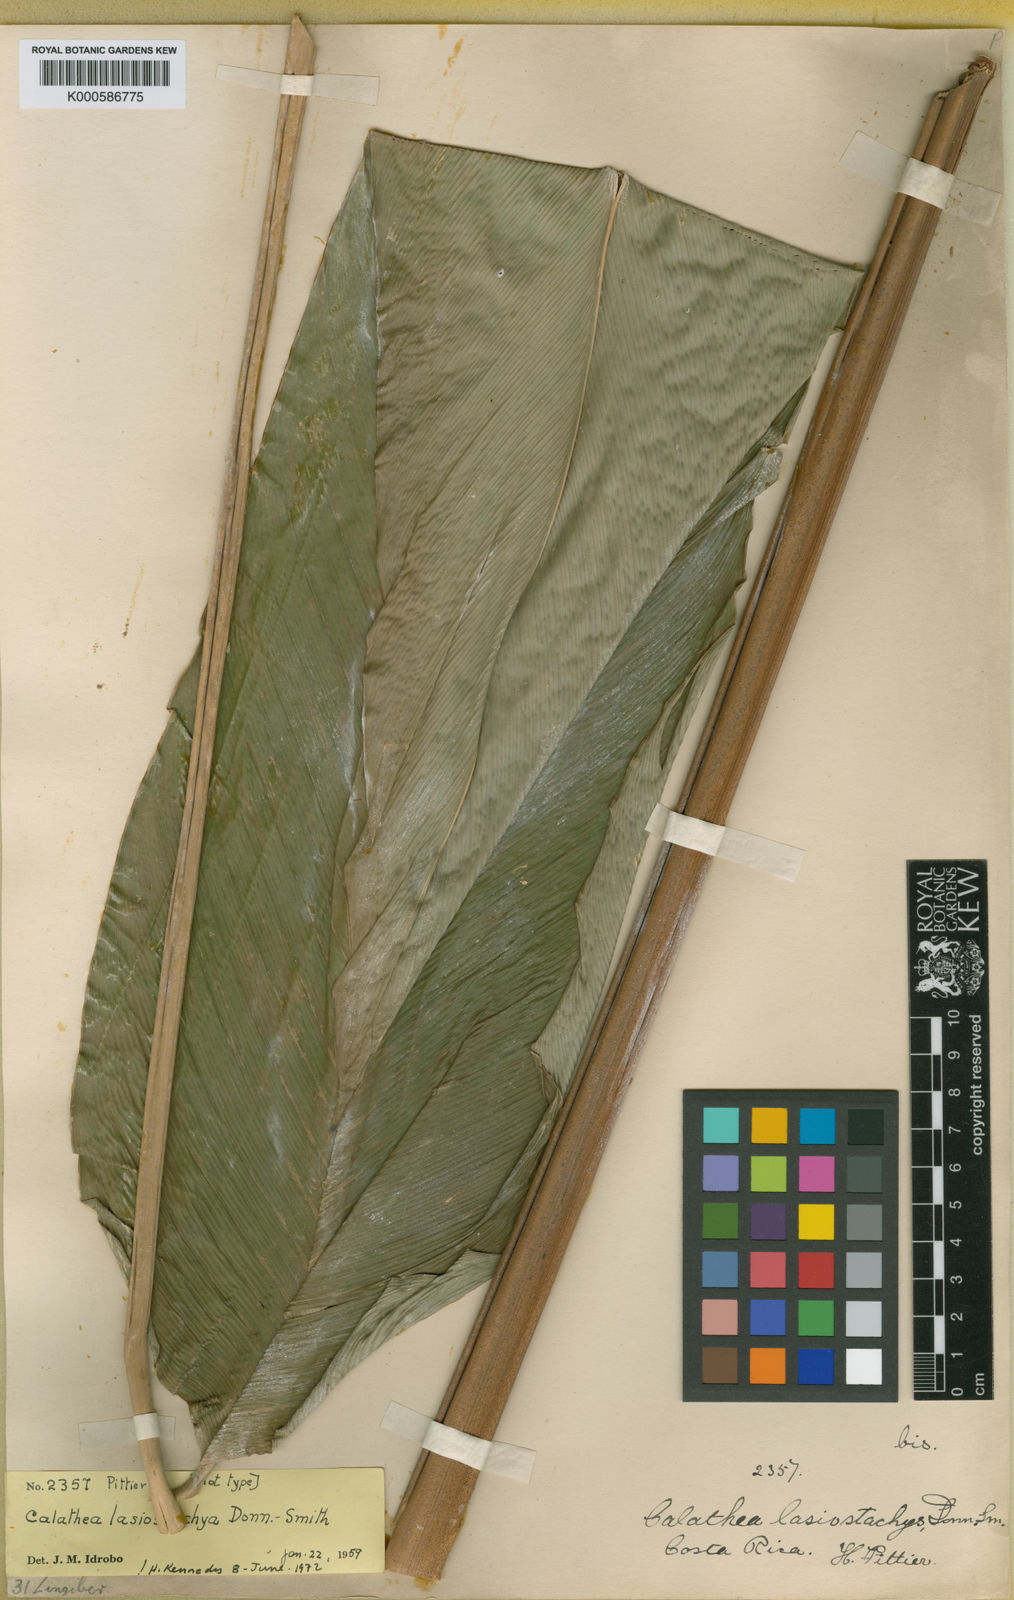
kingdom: Plantae
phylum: Tracheophyta
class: Liliopsida
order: Zingiberales
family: Marantaceae
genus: Calathea
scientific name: Calathea lasiostachya
